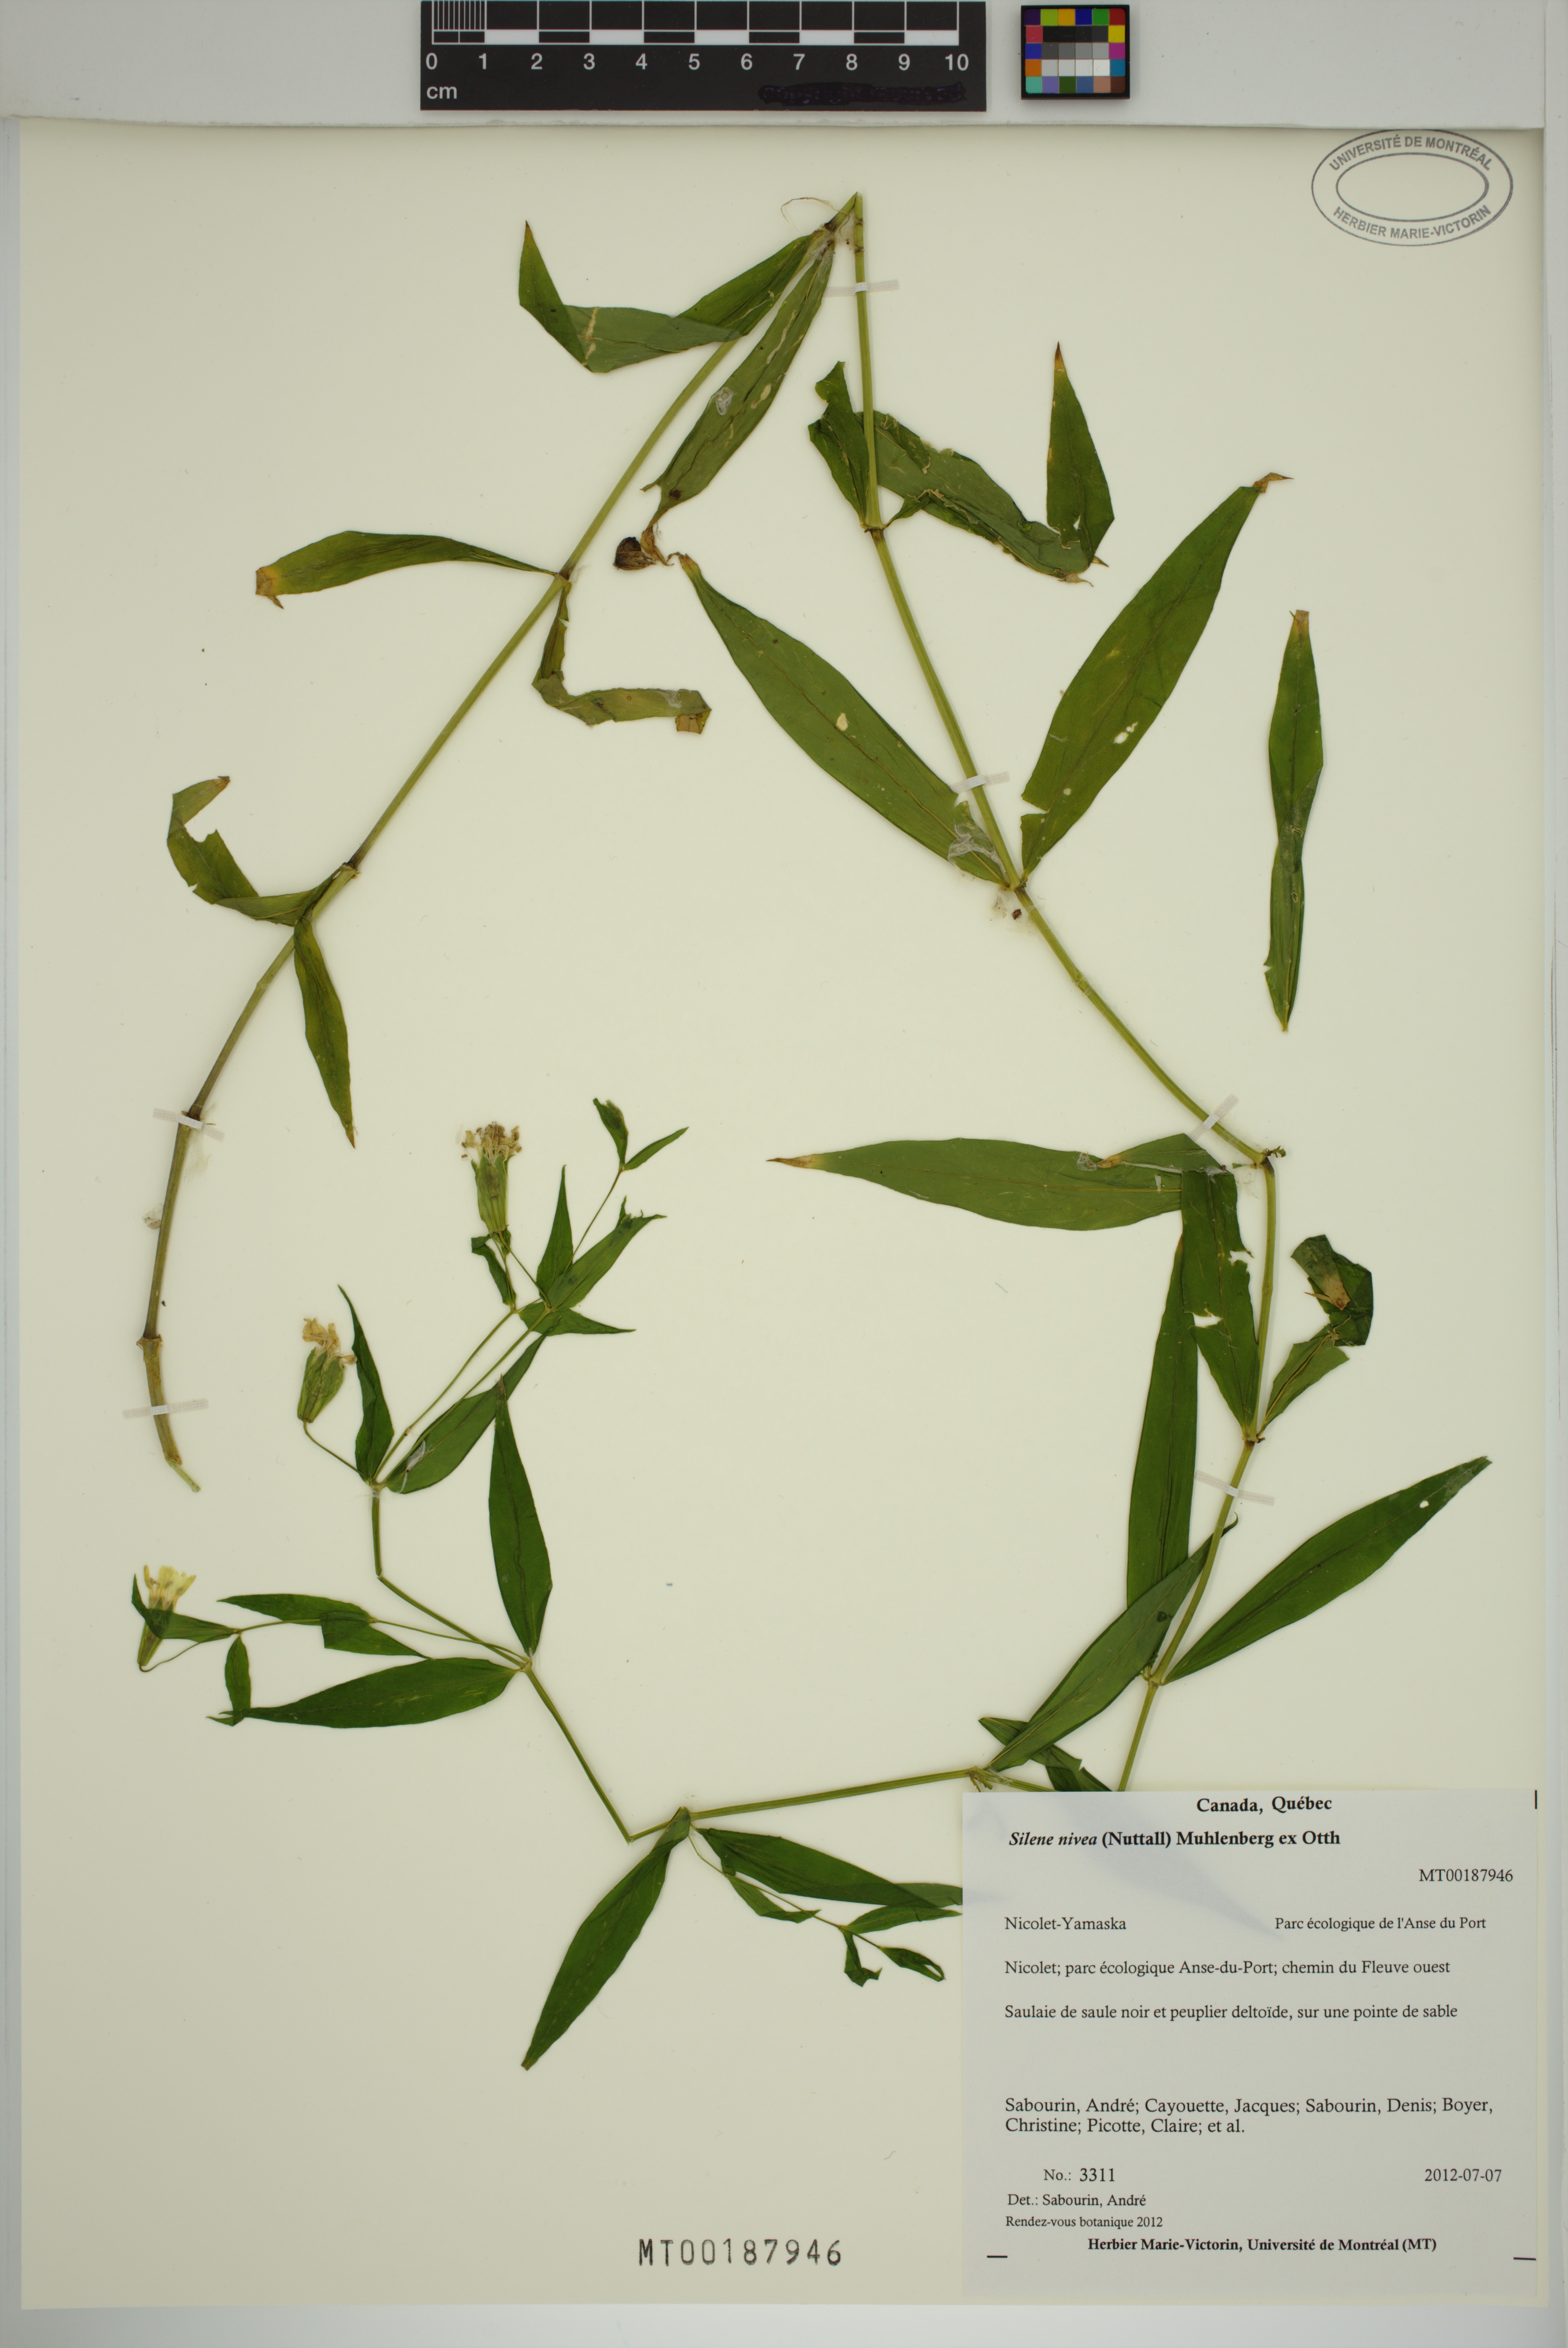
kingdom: Plantae
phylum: Tracheophyta
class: Magnoliopsida
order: Caryophyllales
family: Caryophyllaceae
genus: Silene
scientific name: Silene nivea
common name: Snowy campion
